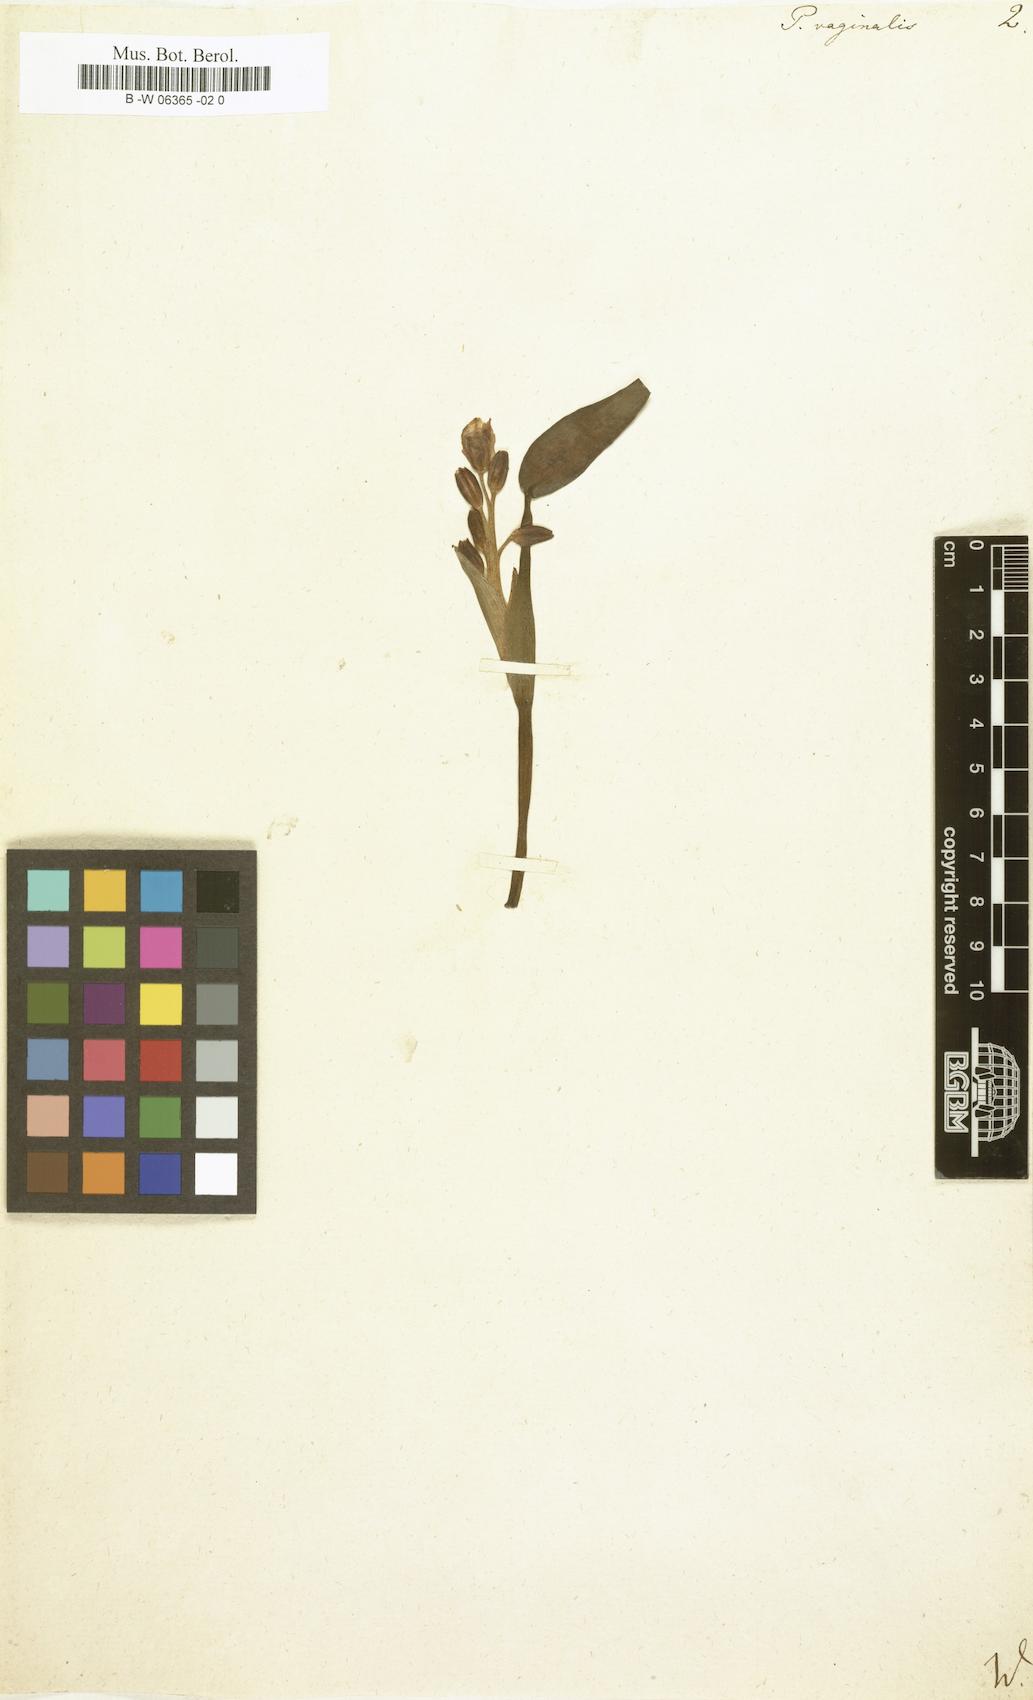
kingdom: Plantae
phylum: Tracheophyta
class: Liliopsida
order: Commelinales
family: Pontederiaceae
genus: Pontederia
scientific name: Pontederia vaginalis
